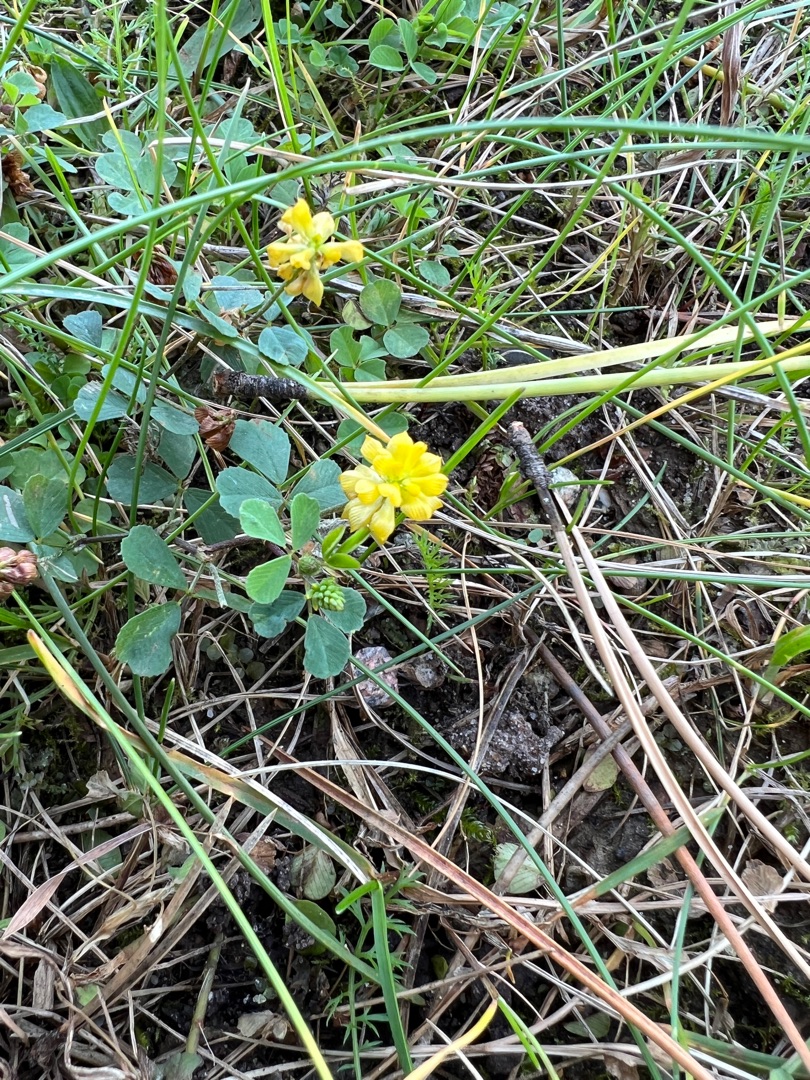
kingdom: Plantae
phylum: Tracheophyta
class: Magnoliopsida
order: Fabales
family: Fabaceae
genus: Trifolium
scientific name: Trifolium campestre
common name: Gul kløver
